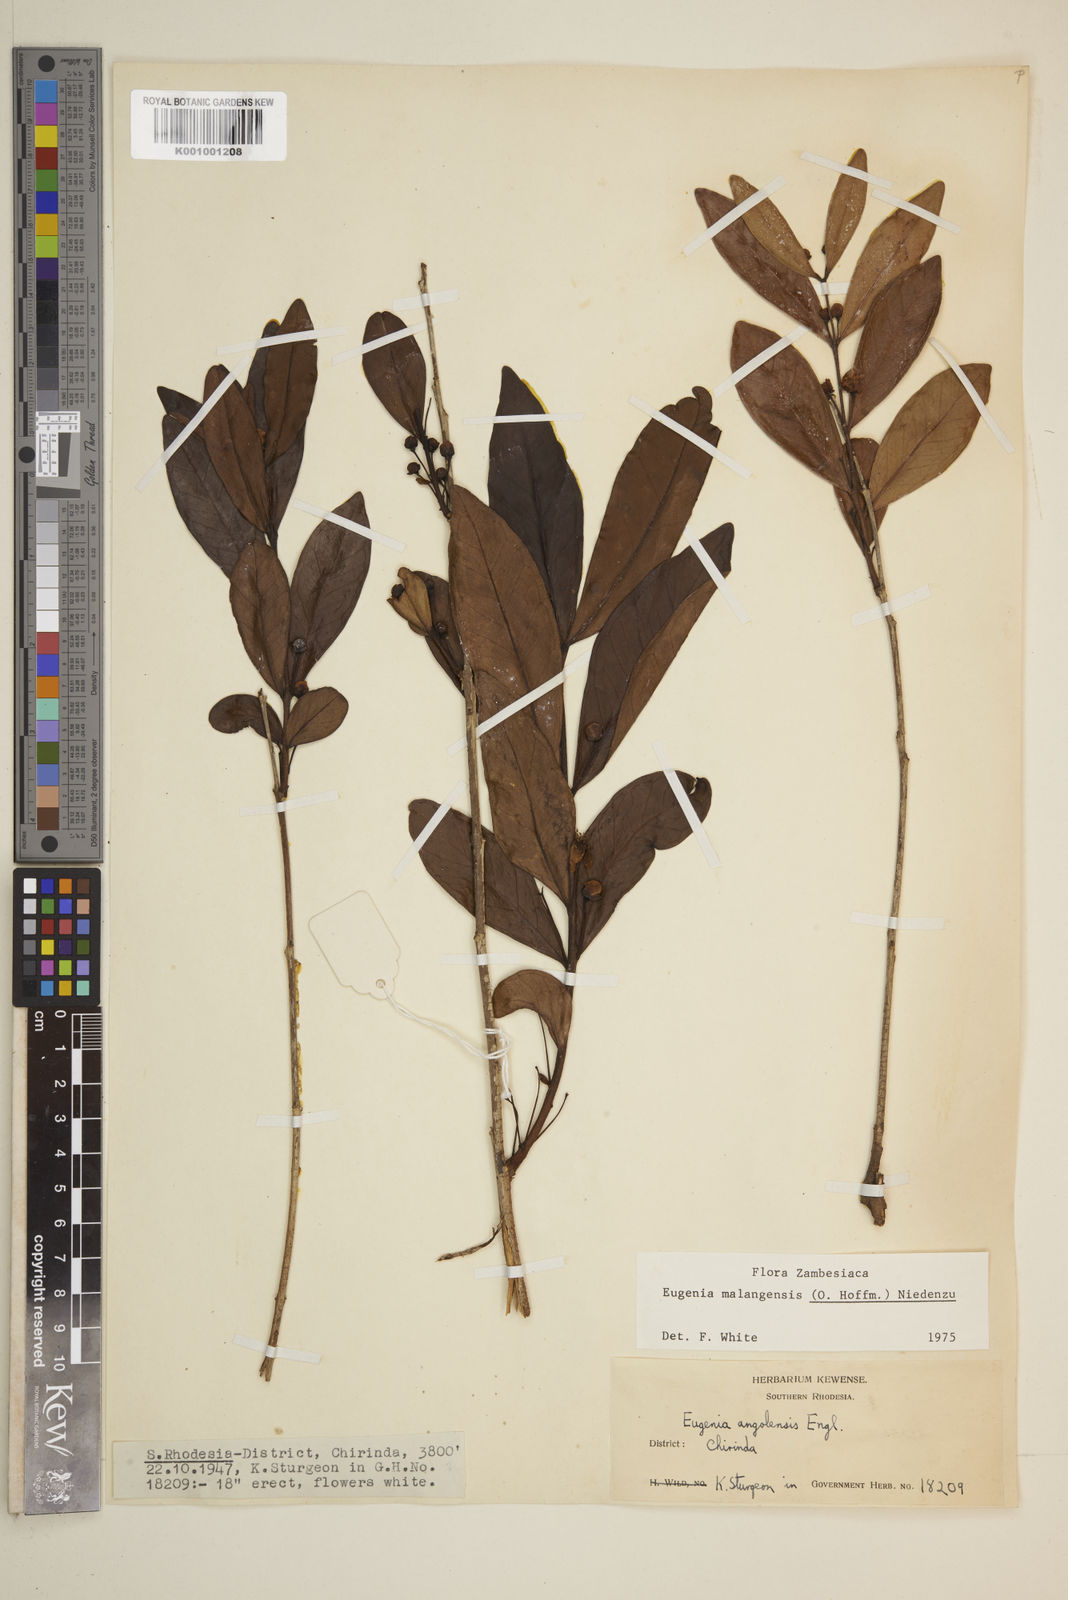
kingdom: Plantae
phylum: Tracheophyta
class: Magnoliopsida
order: Myrtales
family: Myrtaceae
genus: Eugenia
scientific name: Eugenia malangensis
